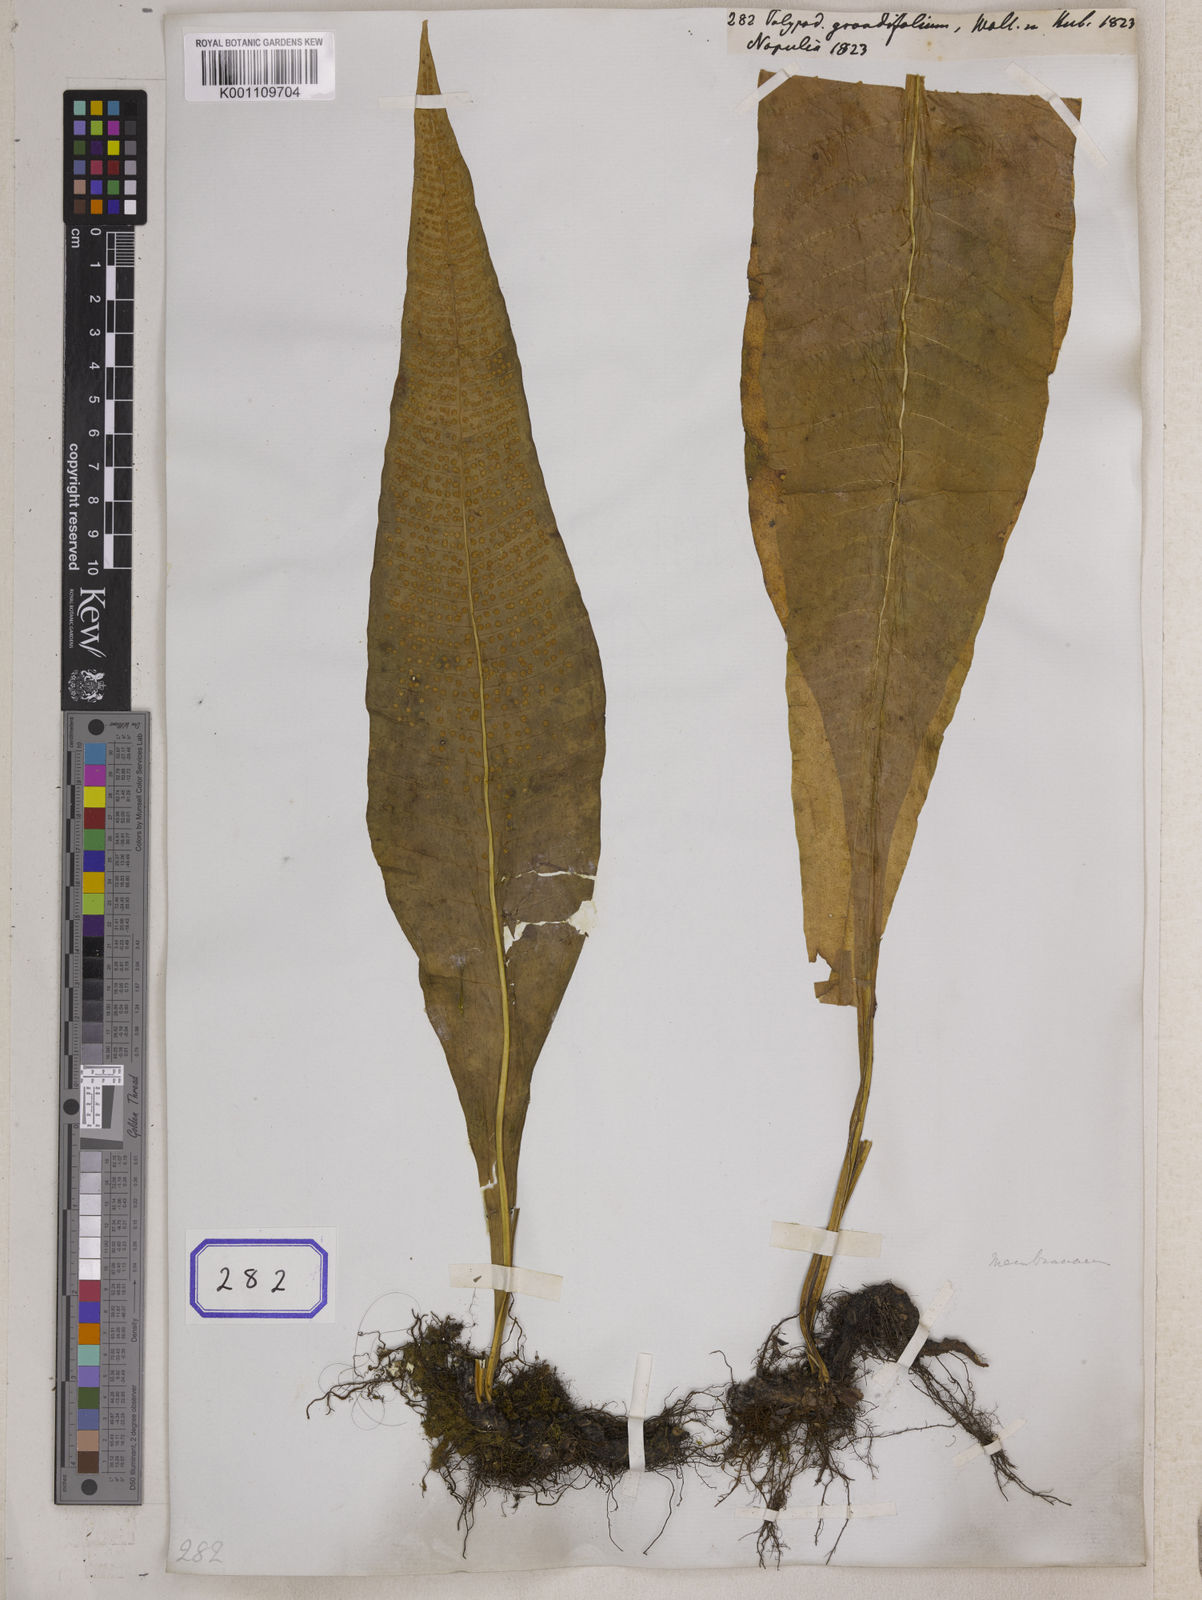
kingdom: Plantae
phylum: Tracheophyta
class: Polypodiopsida
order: Polypodiales
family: Polypodiaceae
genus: Bosmania
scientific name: Bosmania membranacea
